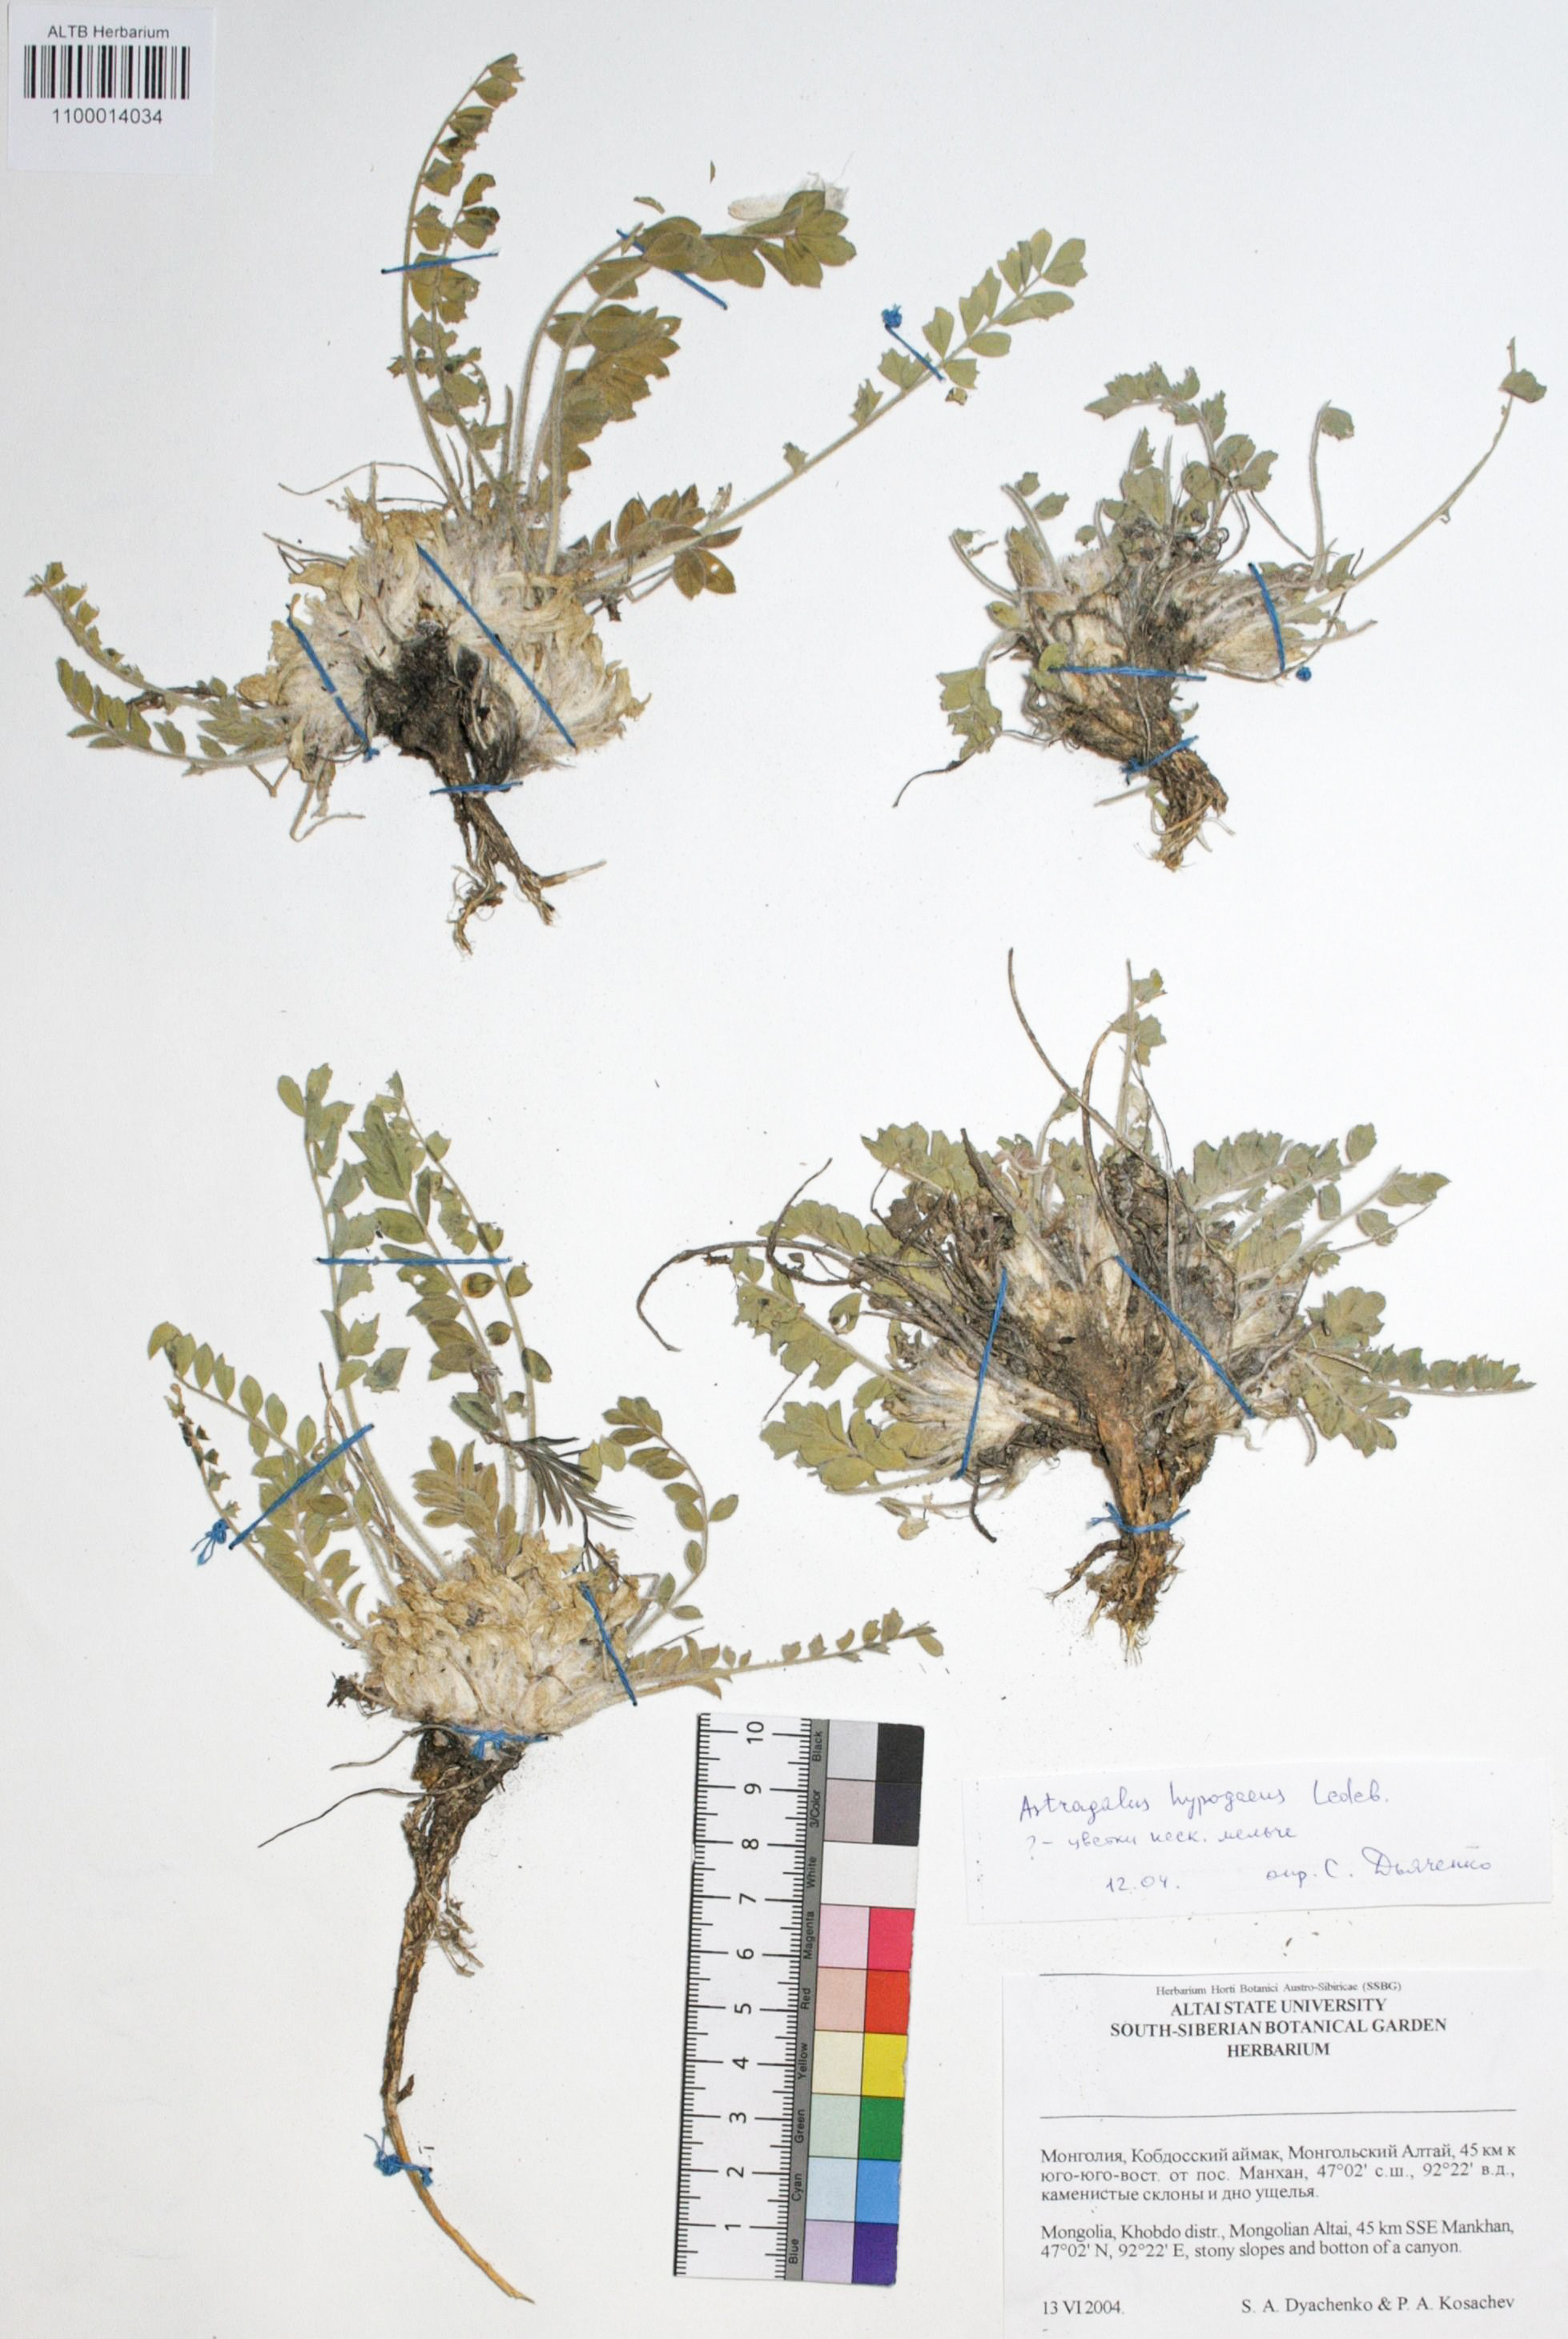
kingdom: Plantae
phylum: Tracheophyta
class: Magnoliopsida
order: Fabales
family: Fabaceae
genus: Astragalus
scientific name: Astragalus hypogaeus
